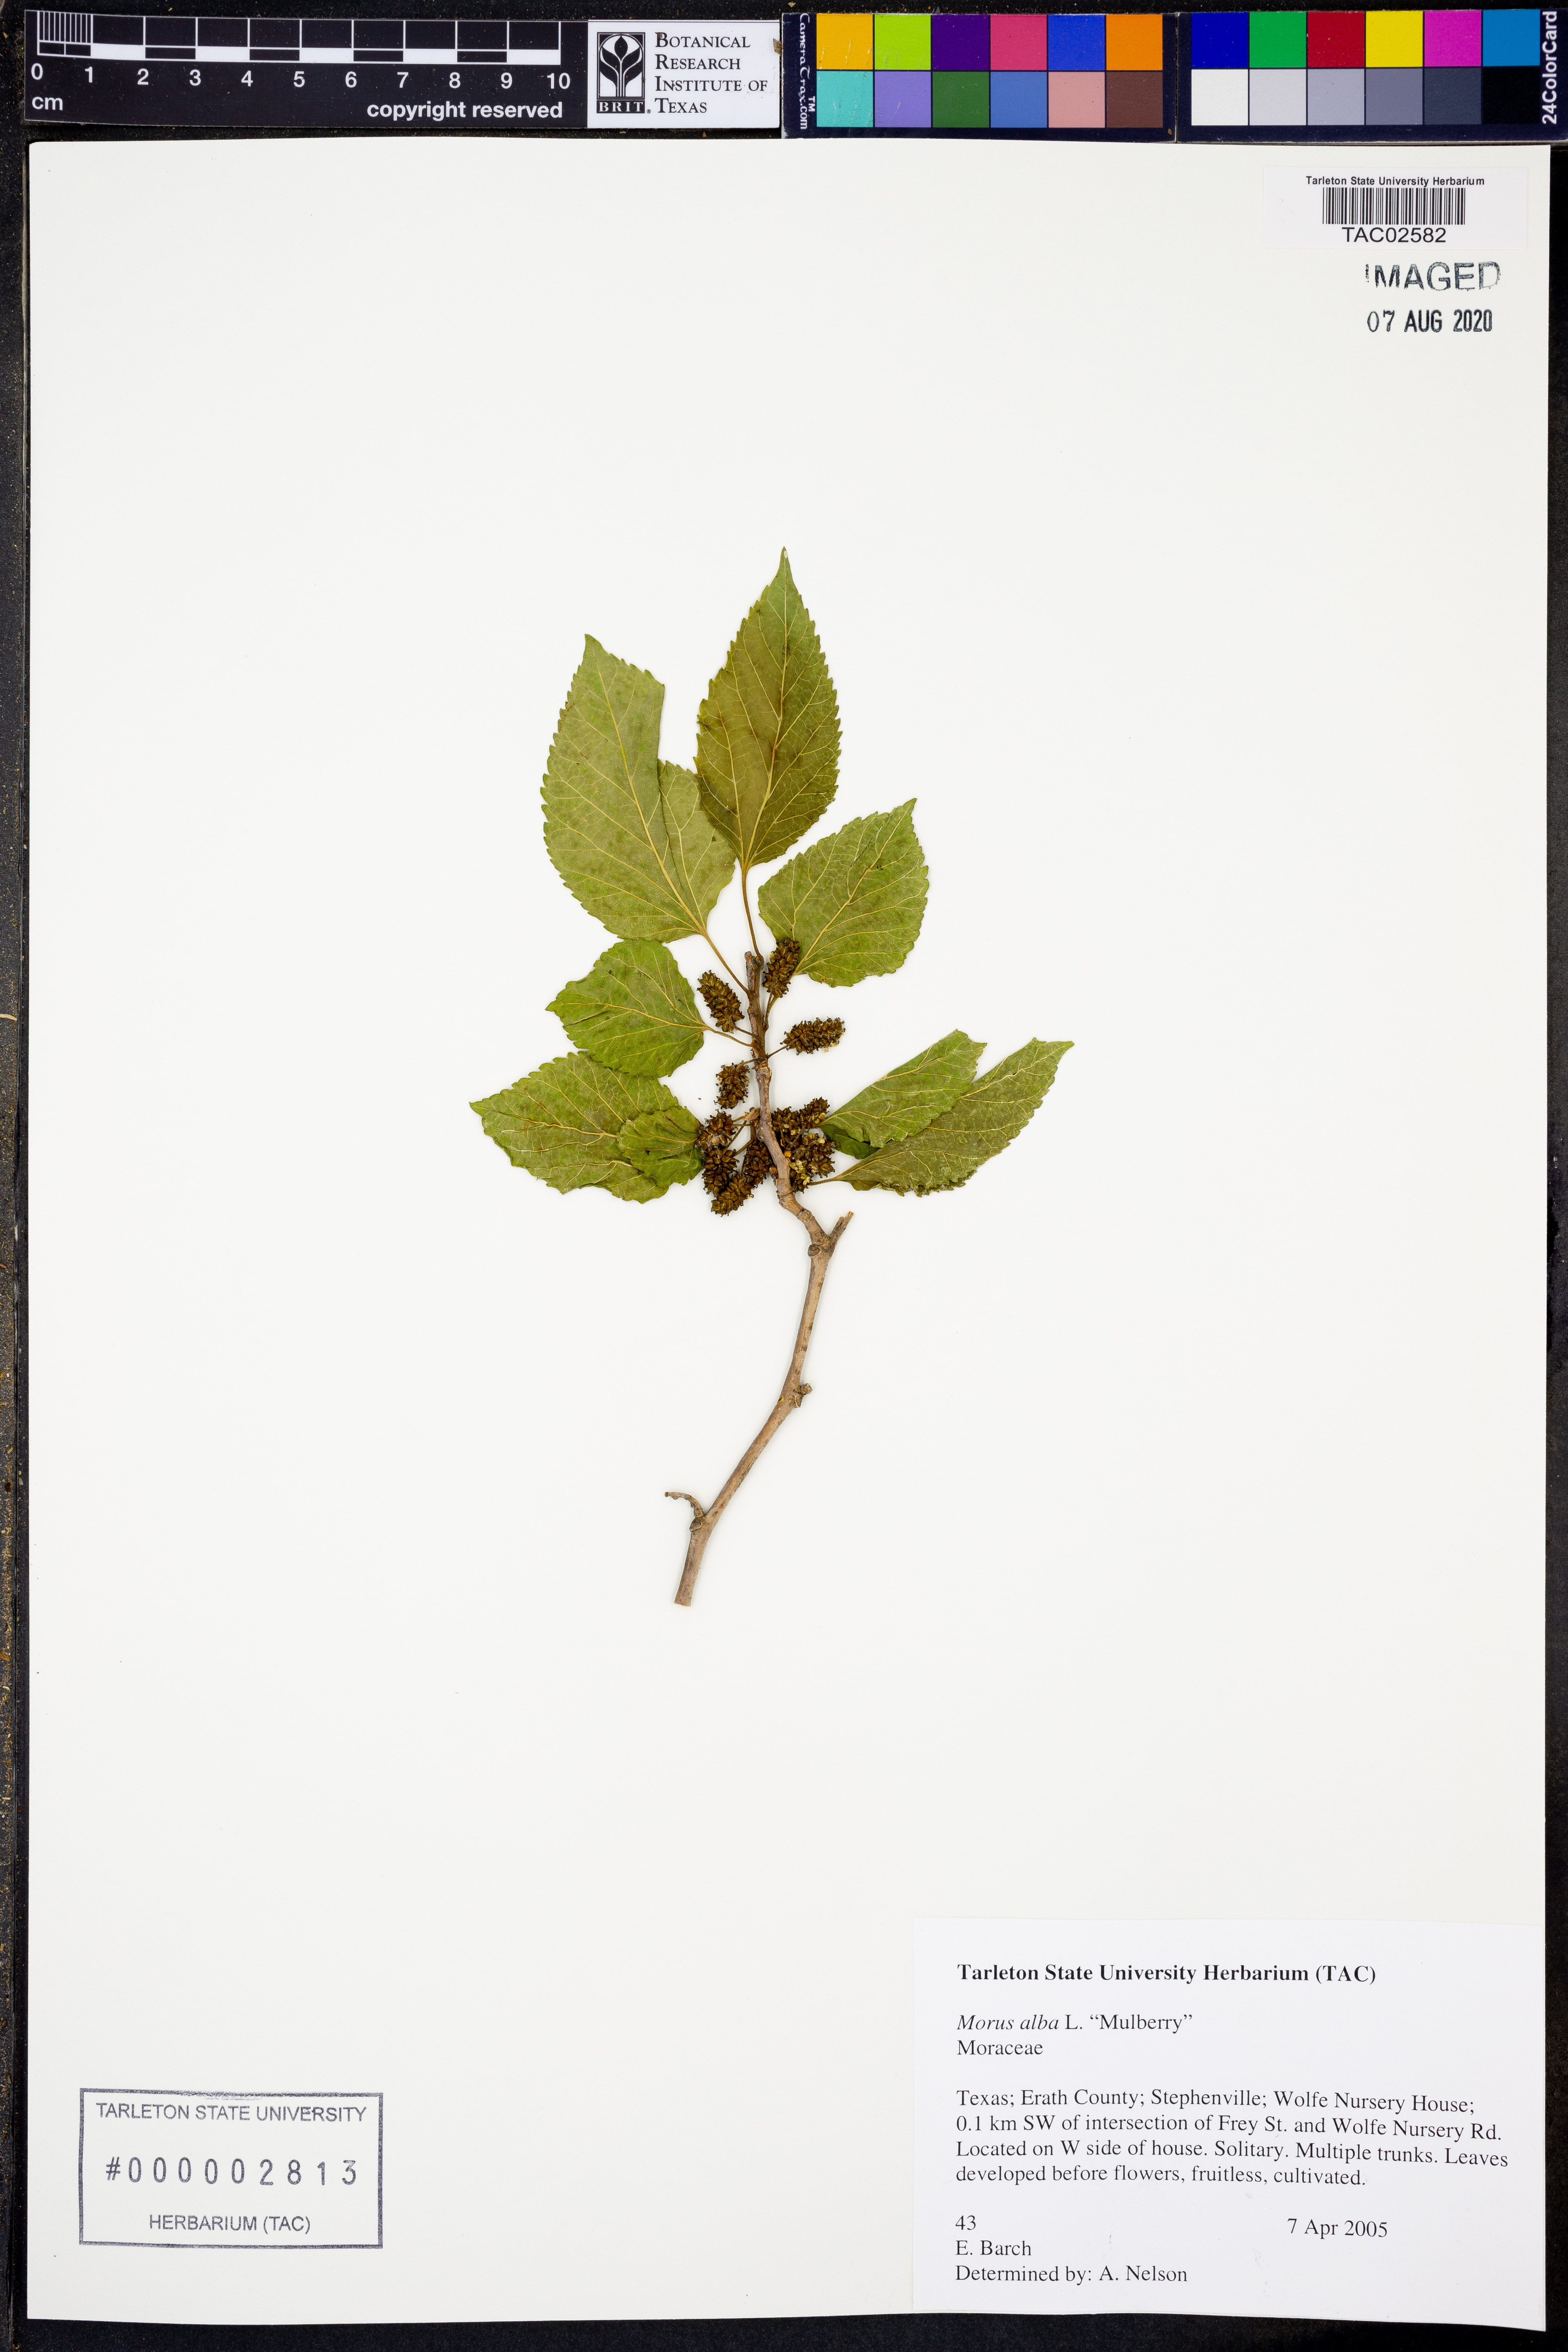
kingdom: Plantae
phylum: Tracheophyta
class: Magnoliopsida
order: Rosales
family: Moraceae
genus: Morus
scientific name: Morus alba
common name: White mulberry
